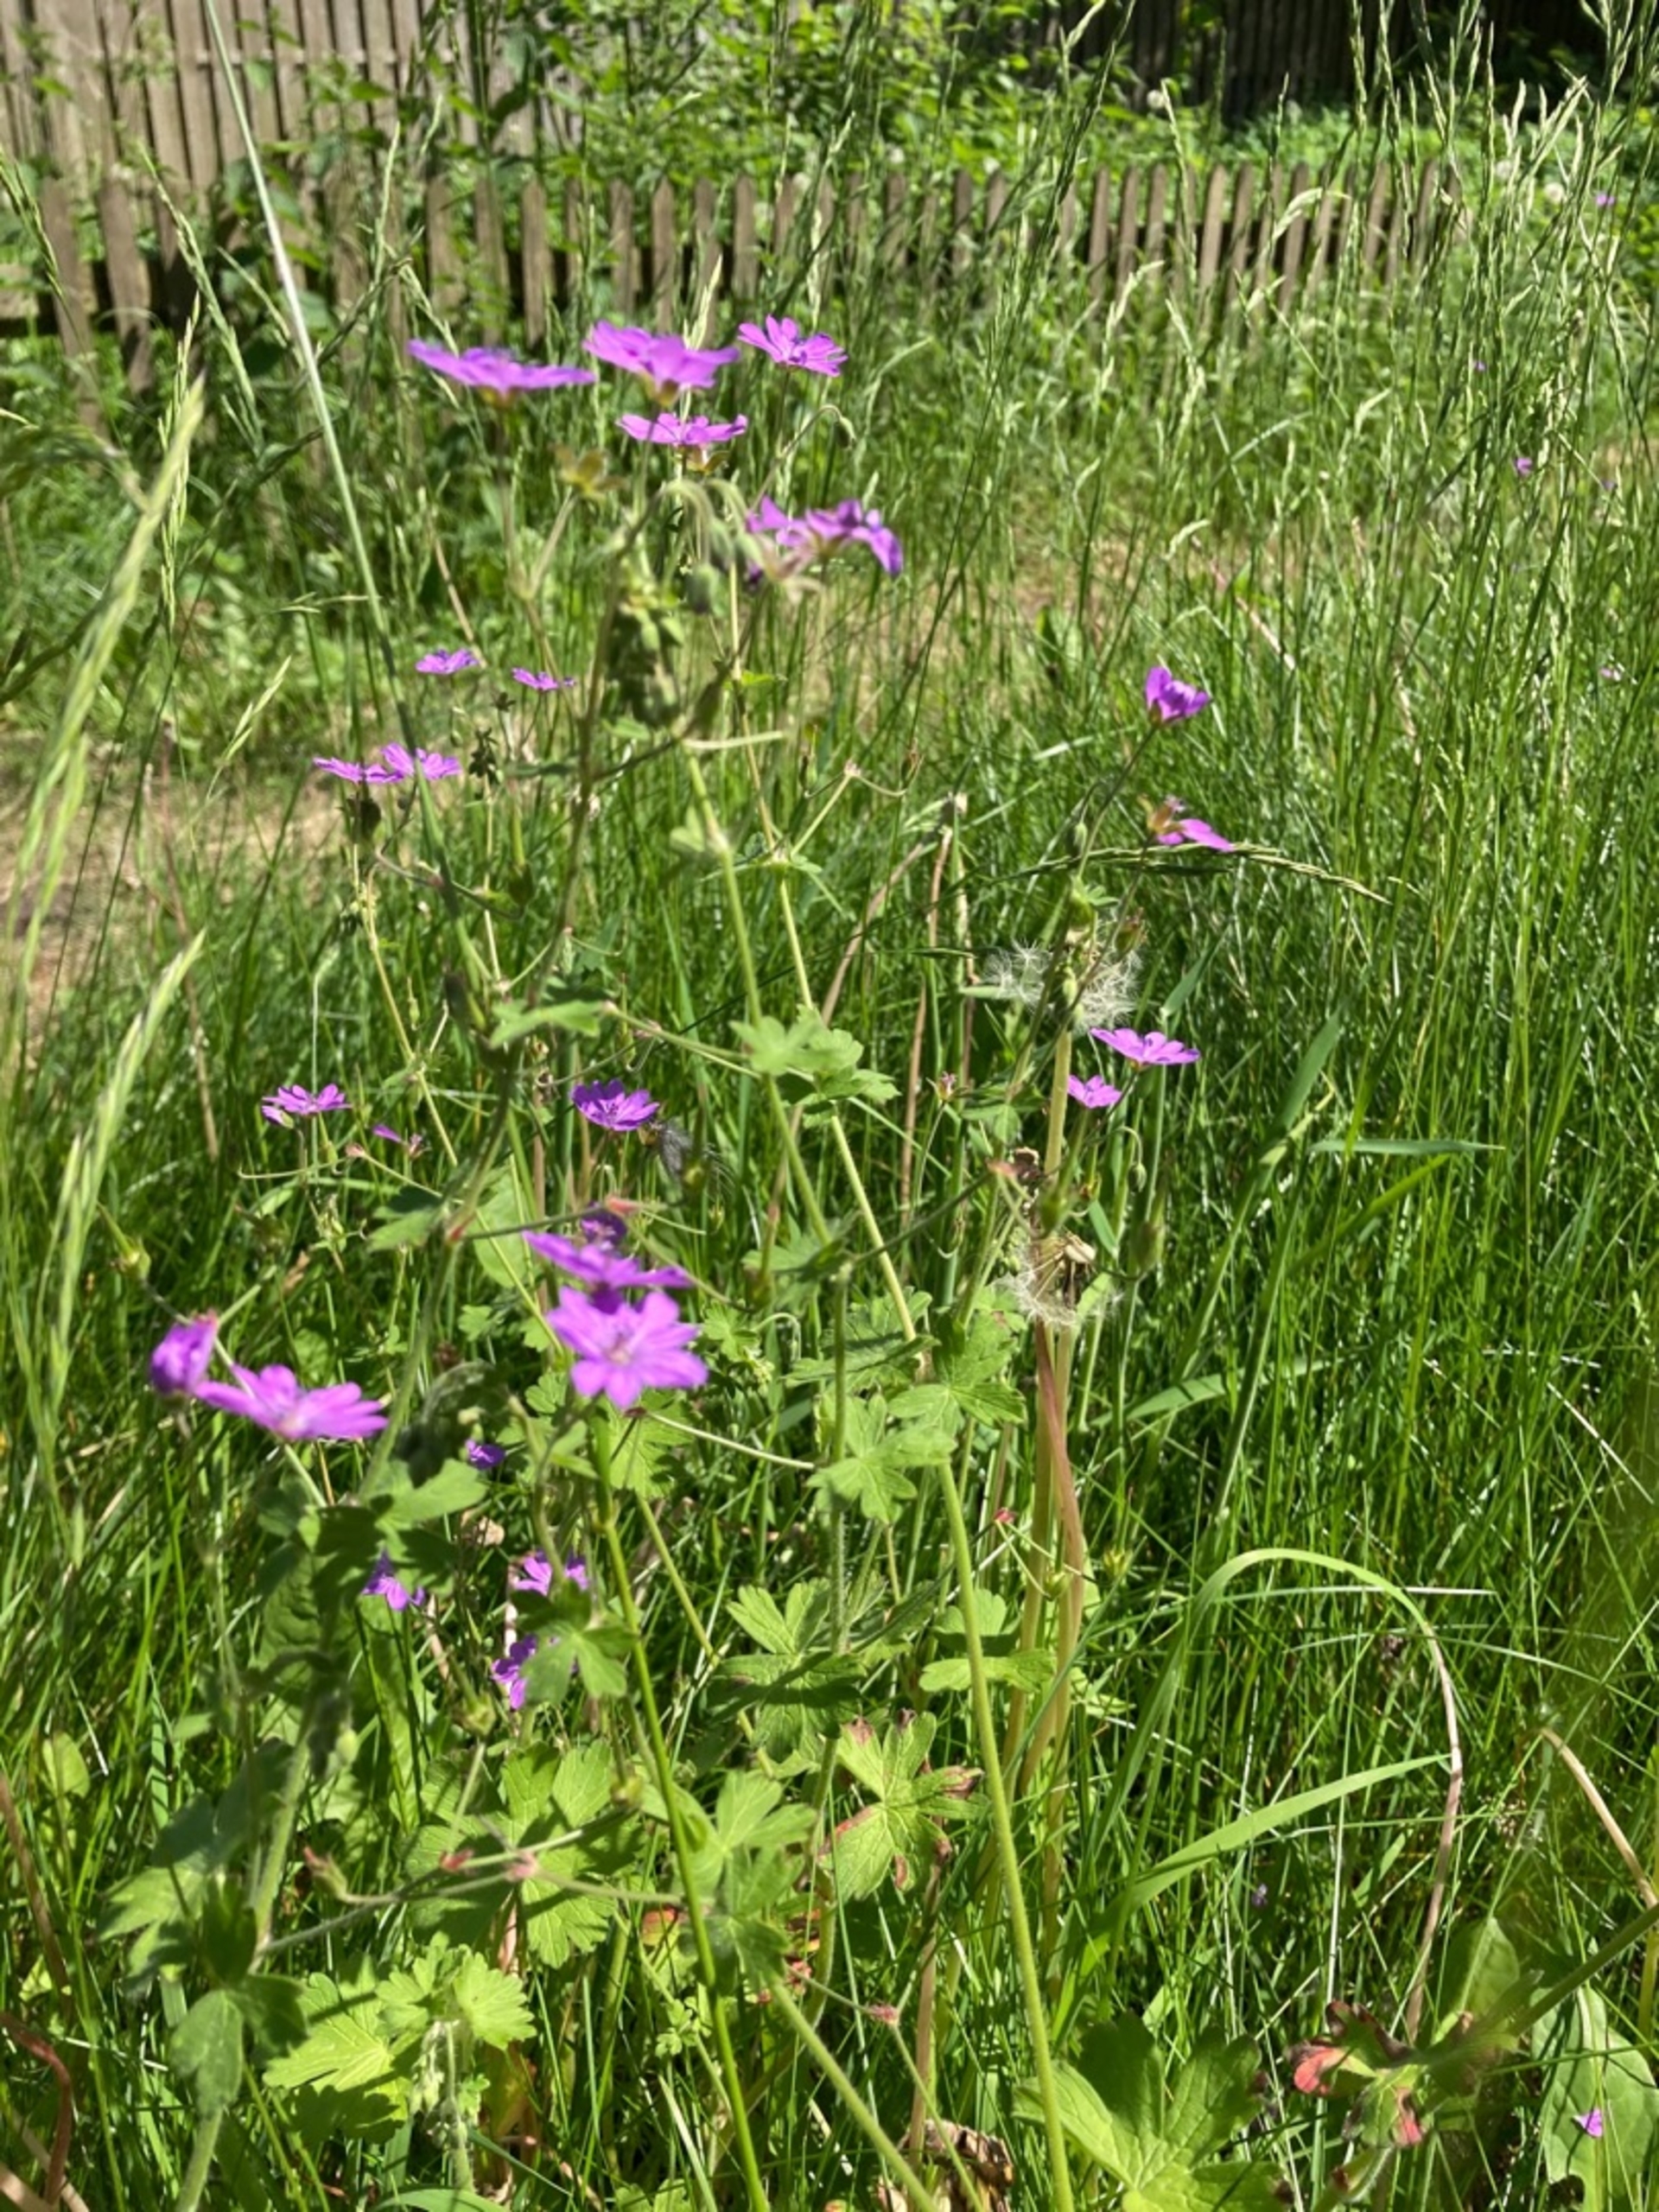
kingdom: Plantae
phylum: Tracheophyta
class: Magnoliopsida
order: Geraniales
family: Geraniaceae
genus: Geranium
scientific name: Geranium pyrenaicum
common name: Pyrenæisk storkenæb
